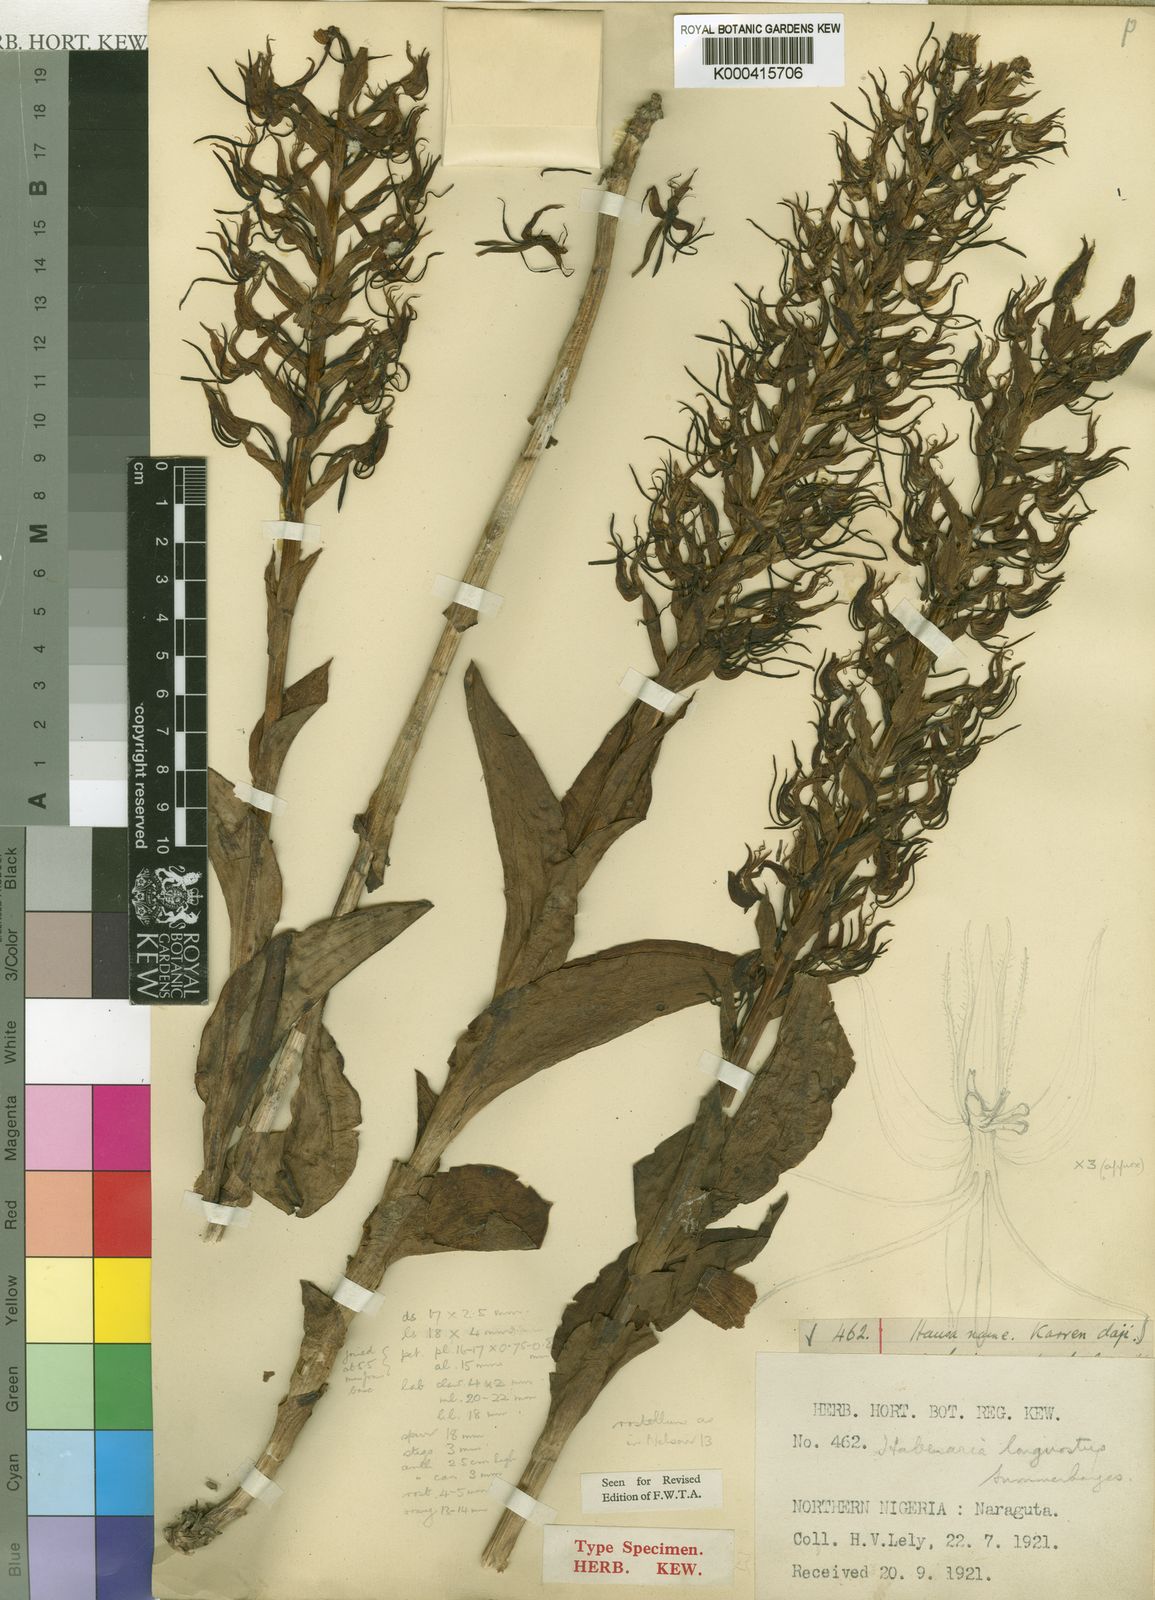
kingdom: Plantae
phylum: Tracheophyta
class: Liliopsida
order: Asparagales
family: Orchidaceae
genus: Habenaria
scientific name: Habenaria longirostris
